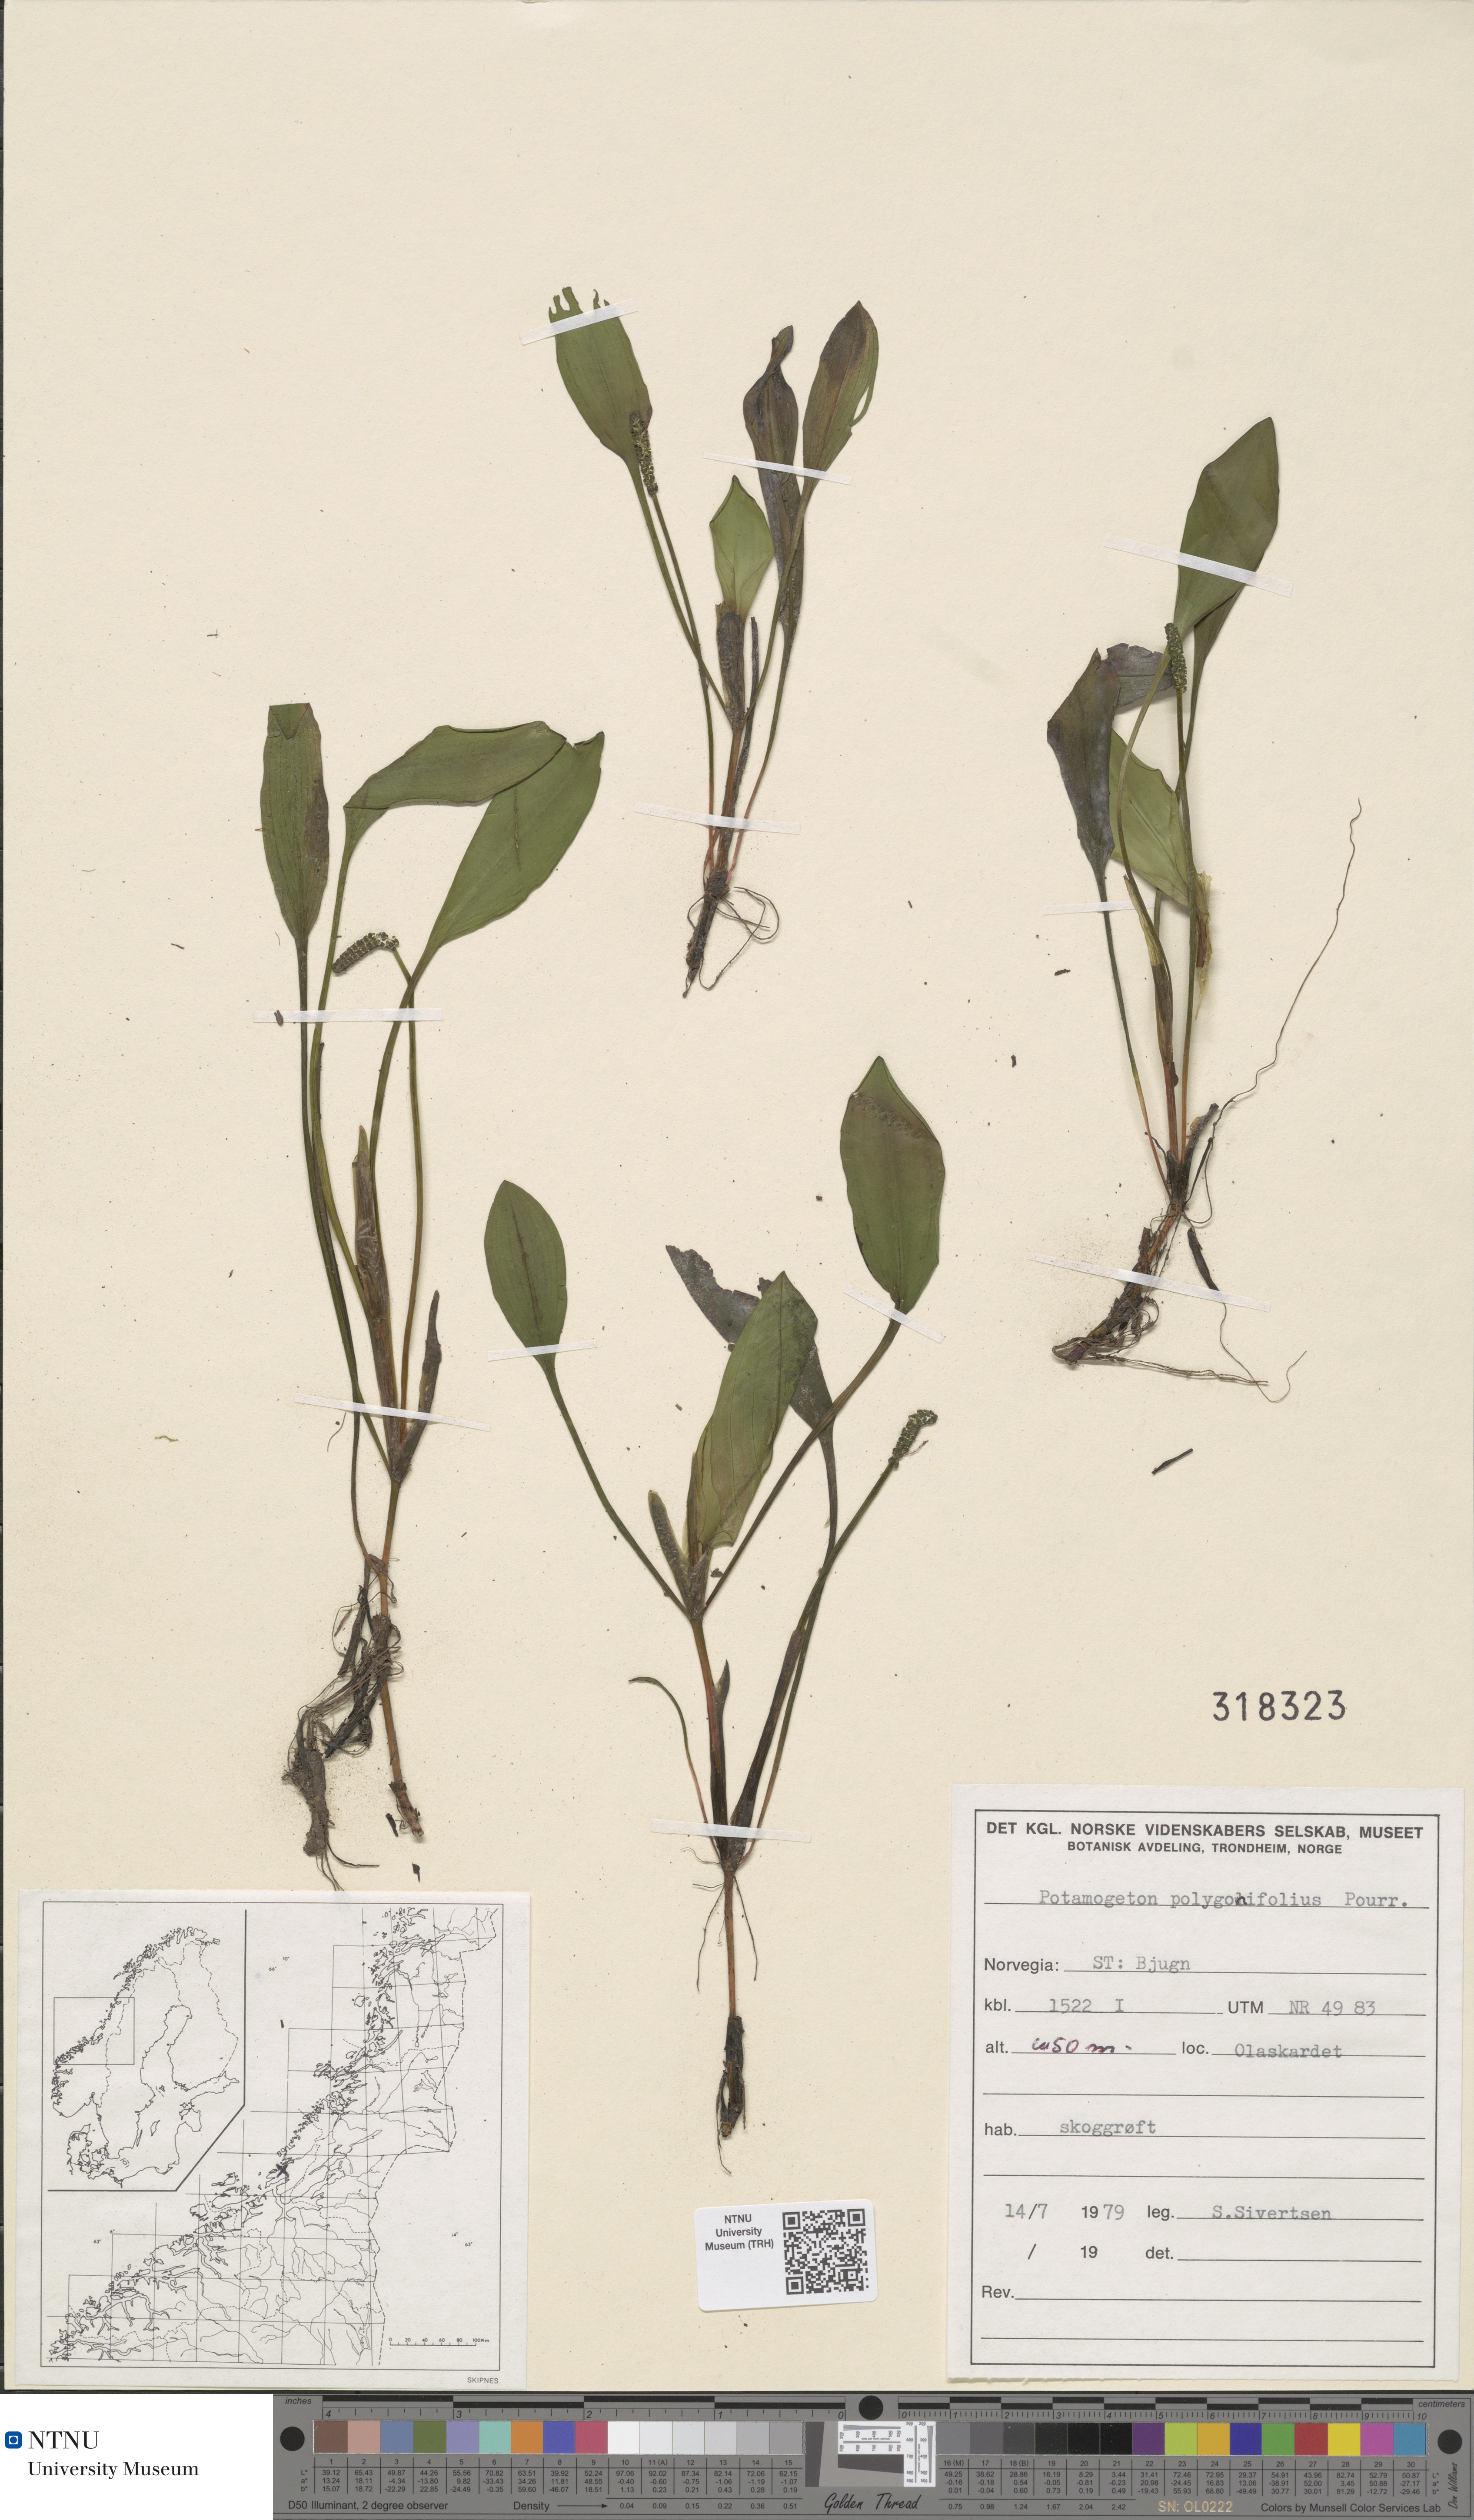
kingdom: Plantae
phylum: Tracheophyta
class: Liliopsida
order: Alismatales
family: Potamogetonaceae
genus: Potamogeton
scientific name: Potamogeton polygonifolius
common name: Bog pondweed
